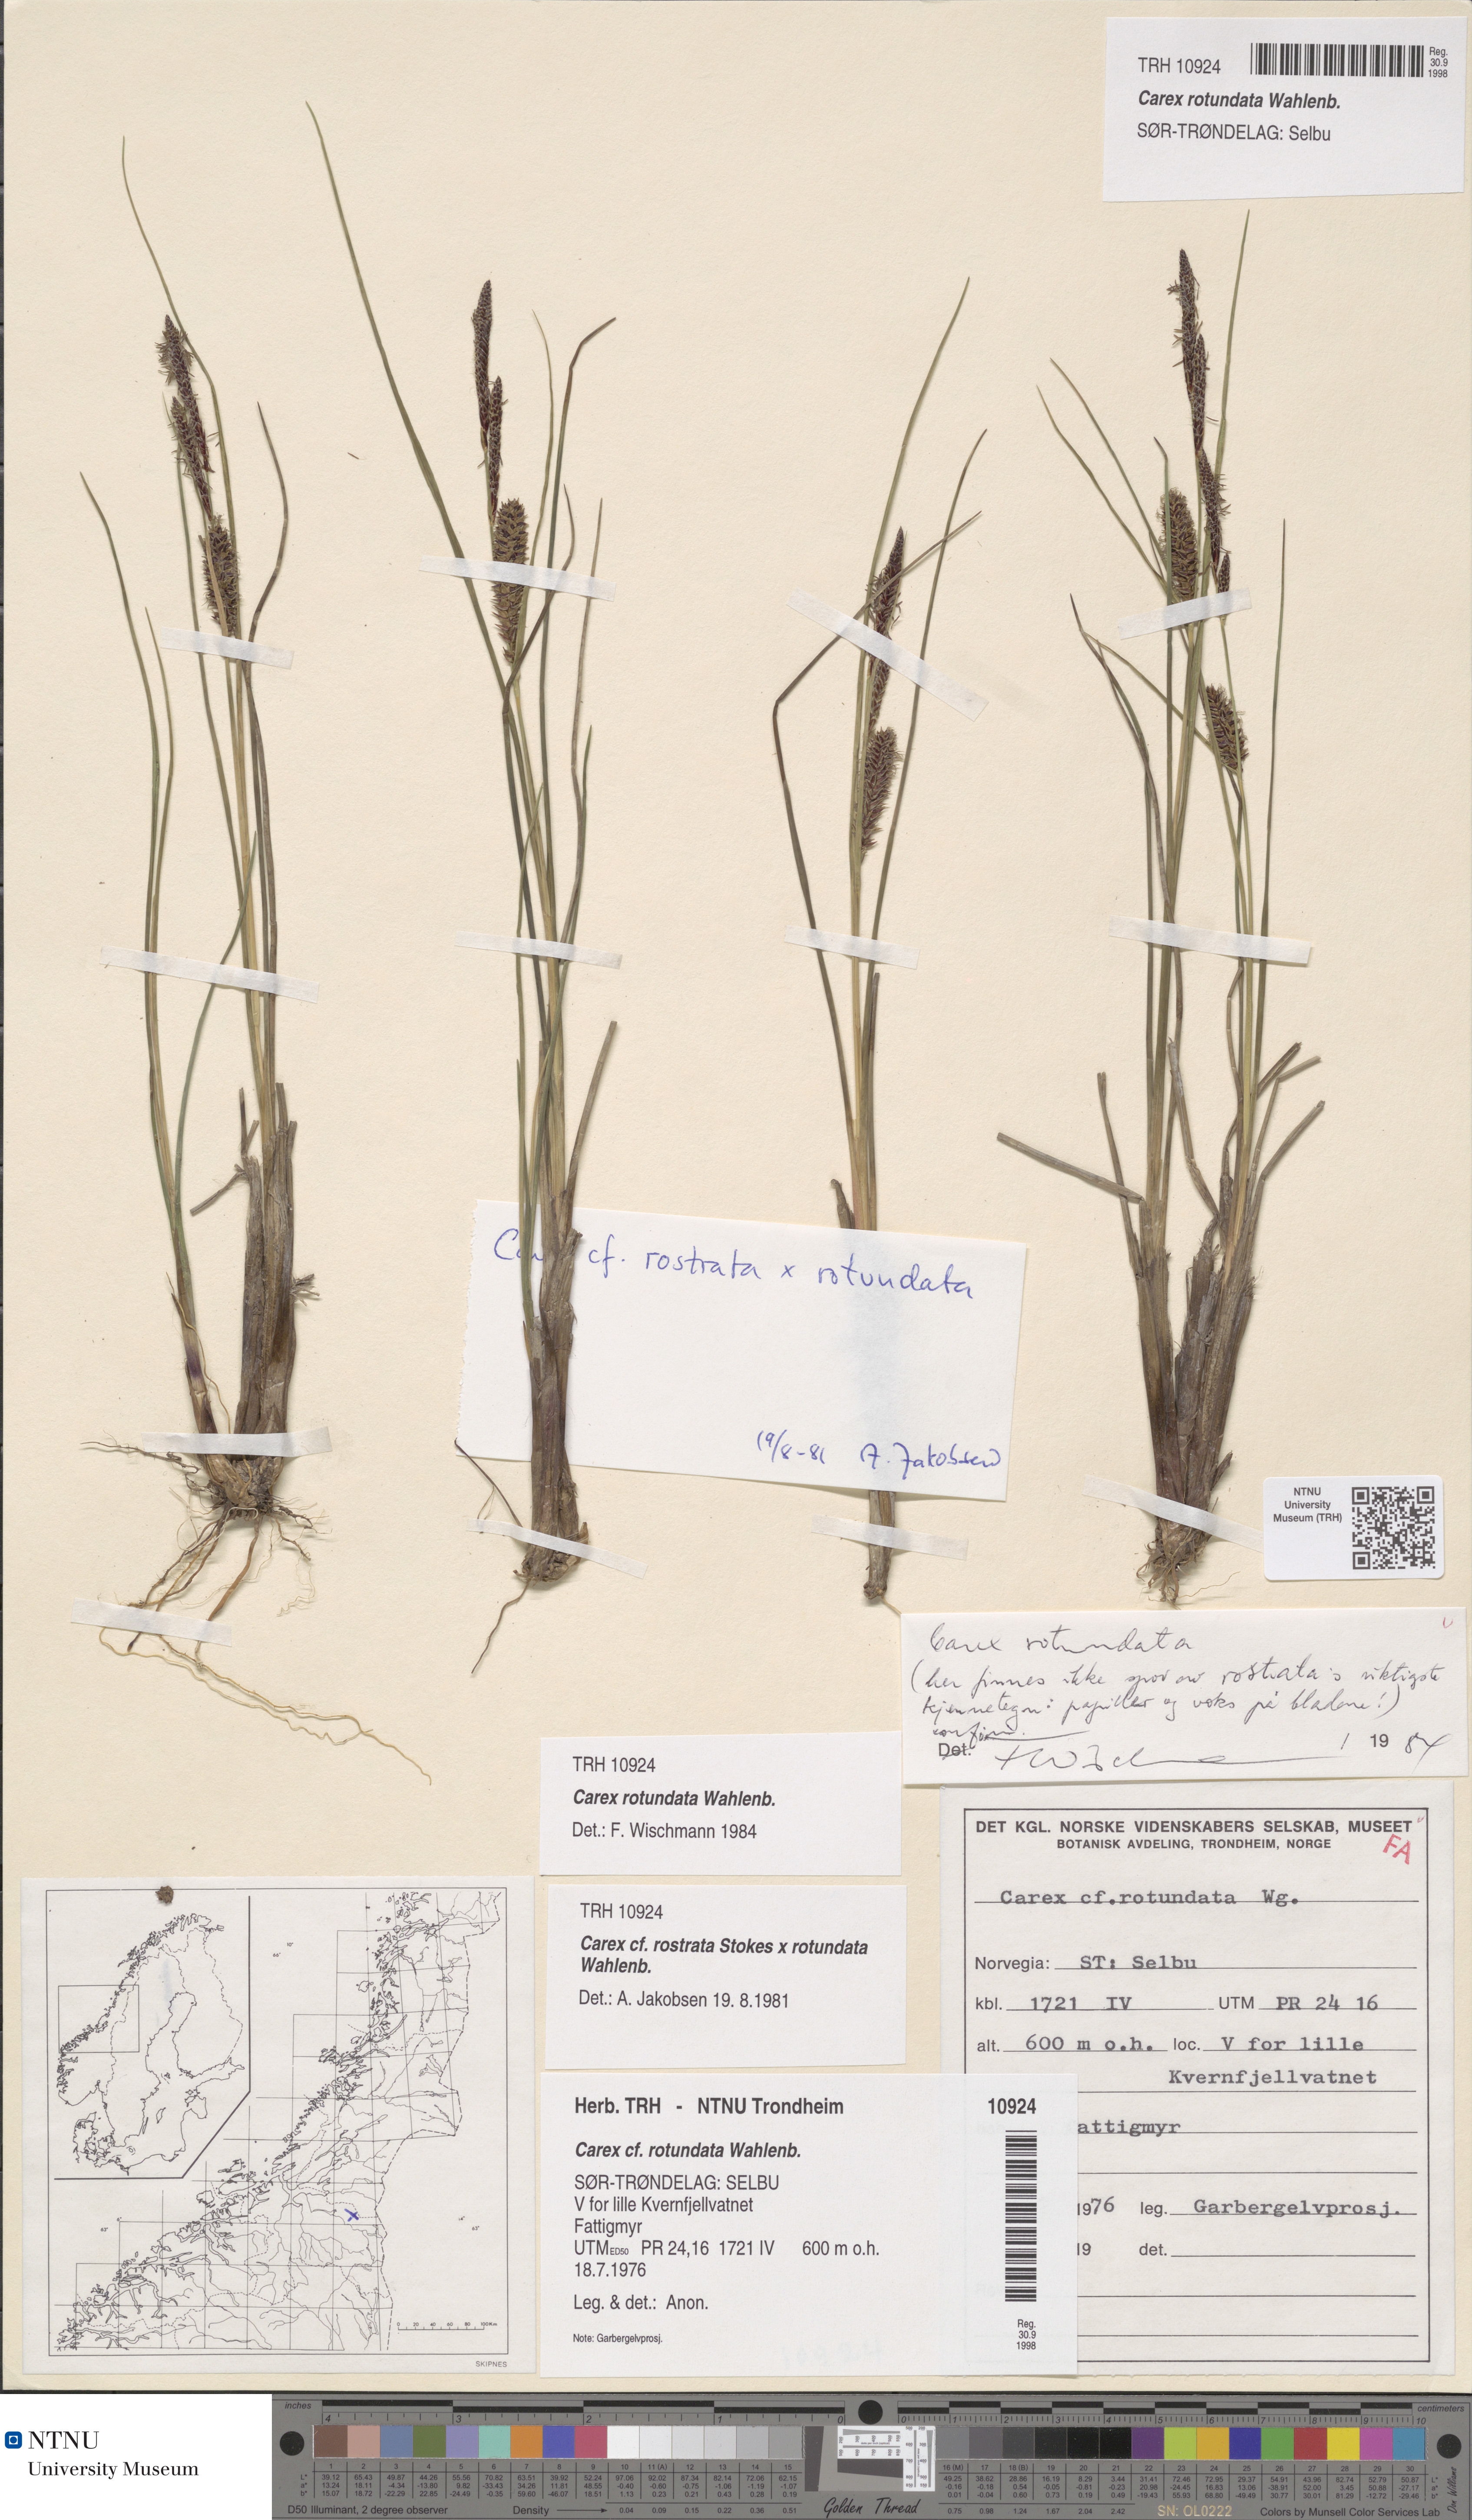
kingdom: Plantae
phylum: Tracheophyta
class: Liliopsida
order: Poales
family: Cyperaceae
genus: Carex
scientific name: Carex rotundata
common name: Round-fruited sedge
